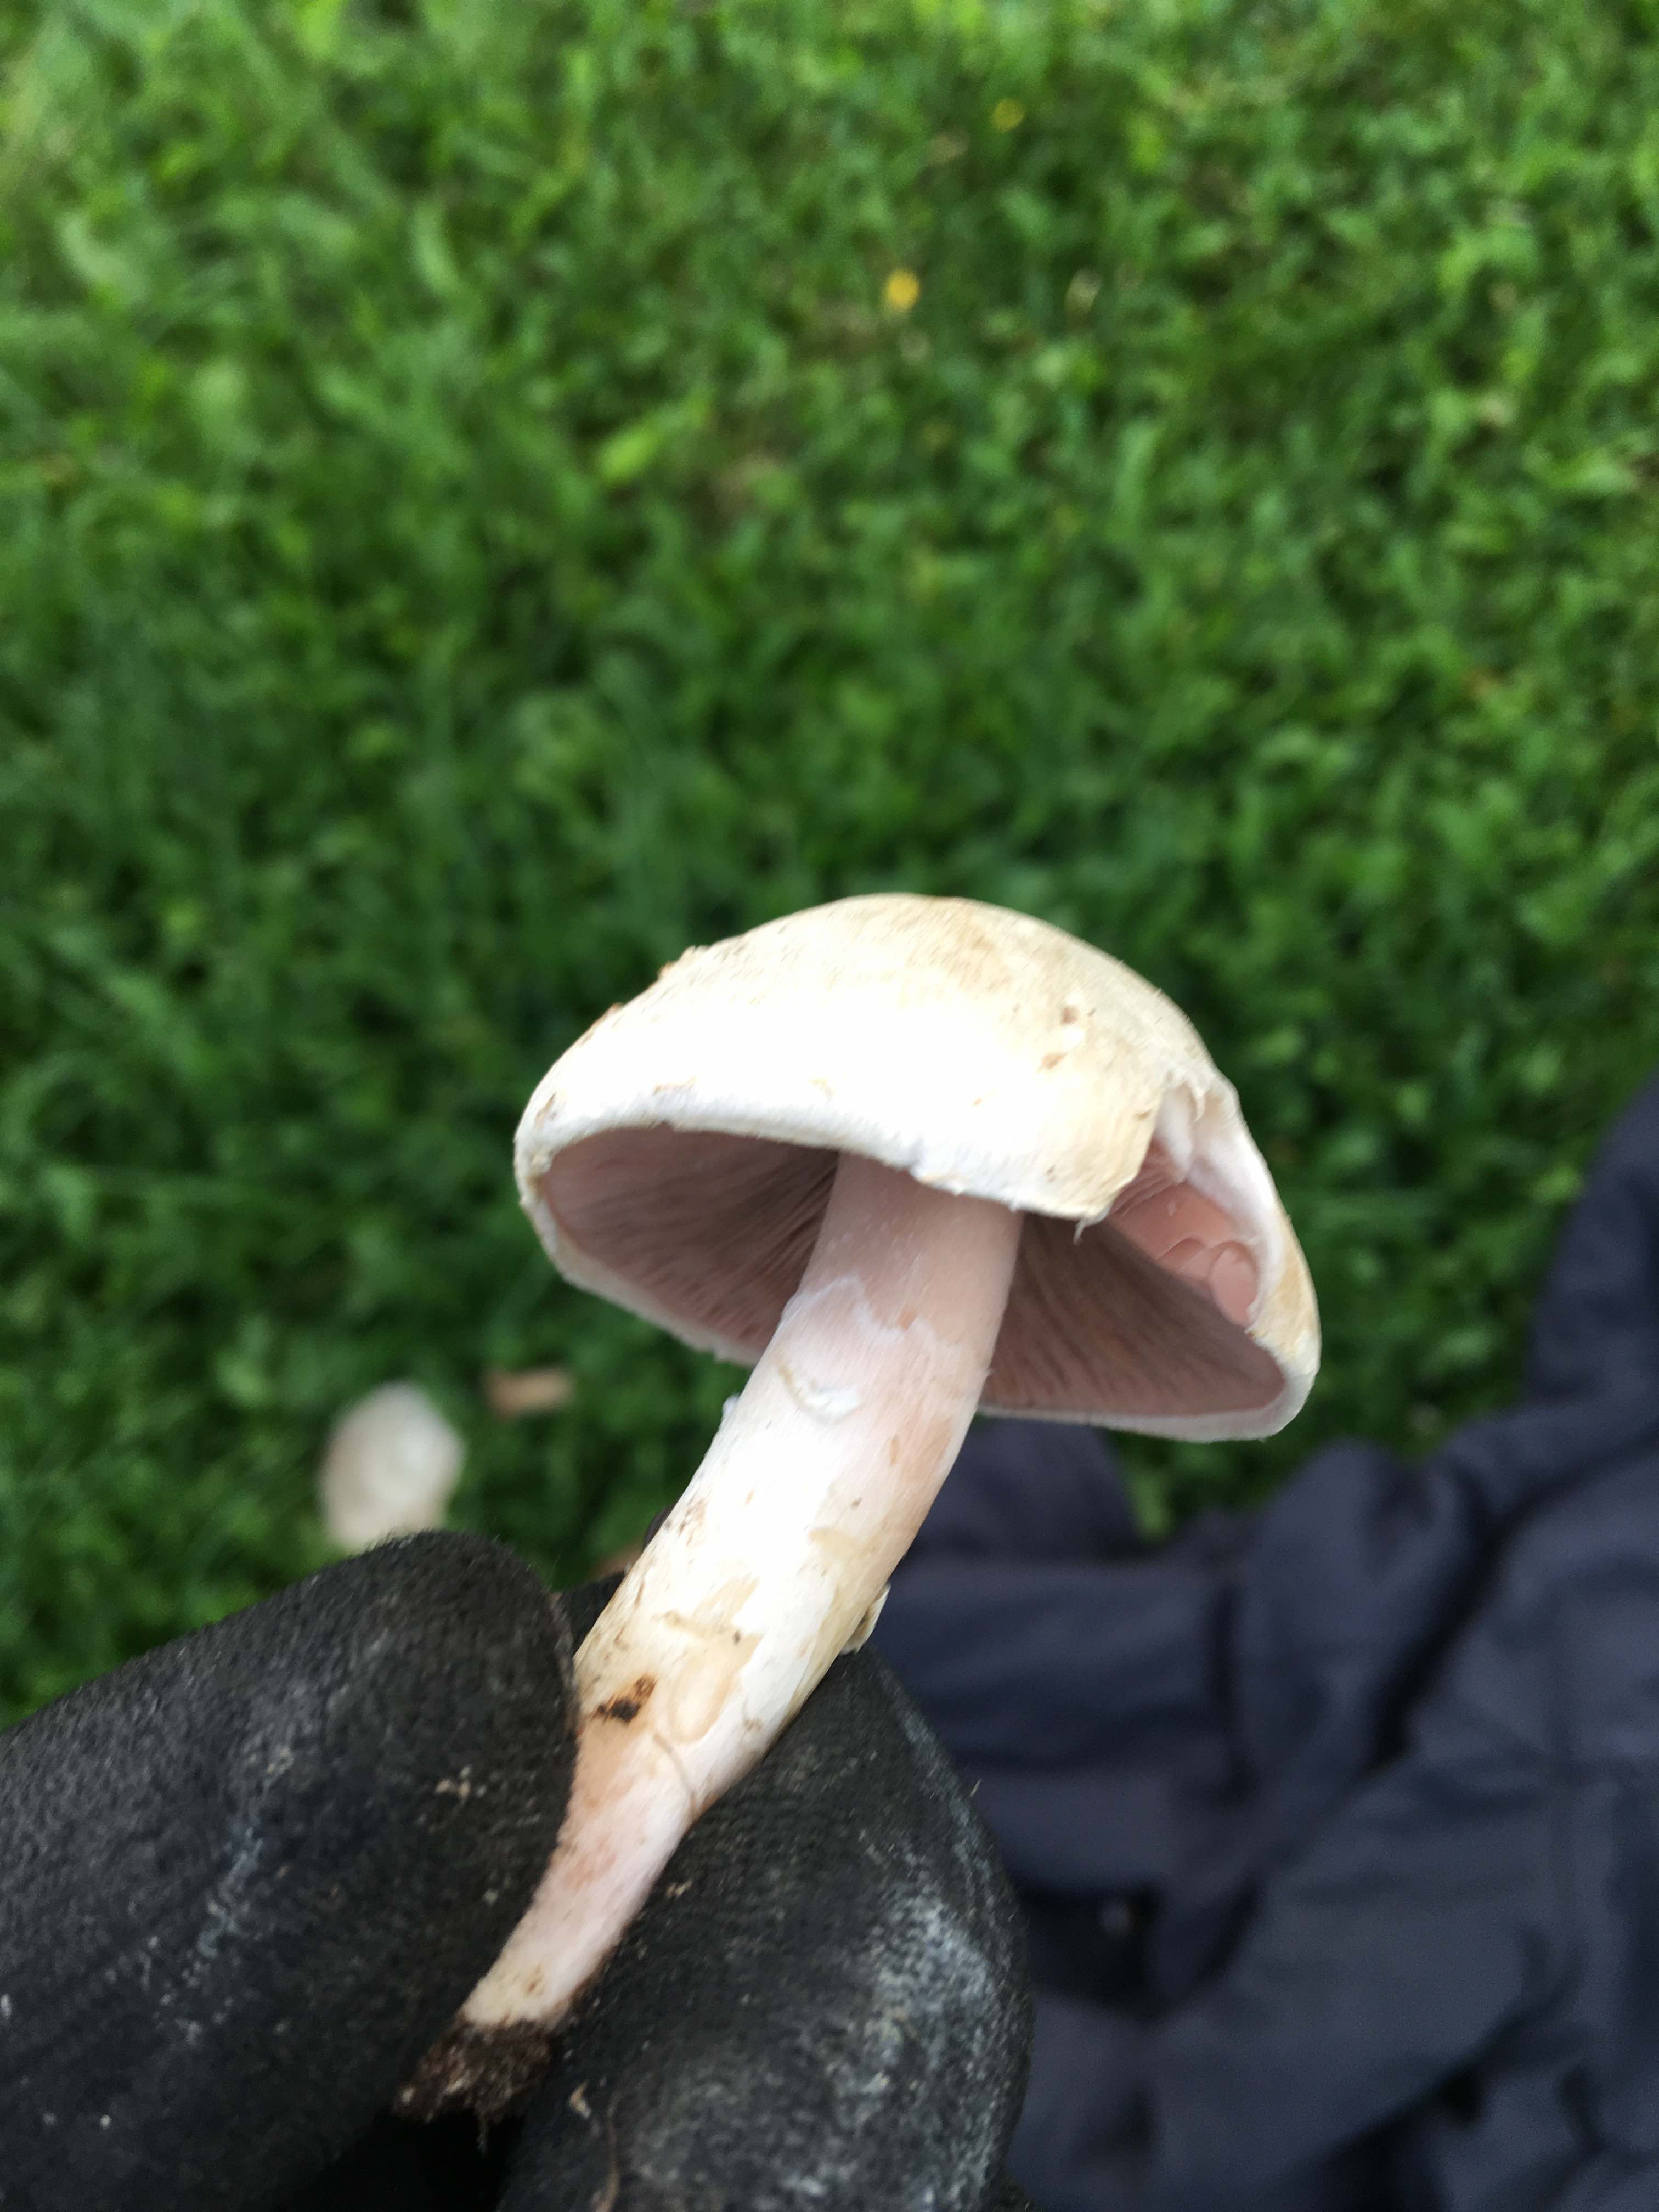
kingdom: Fungi
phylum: Basidiomycota
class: Agaricomycetes
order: Agaricales
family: Agaricaceae
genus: Agaricus
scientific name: Agaricus
